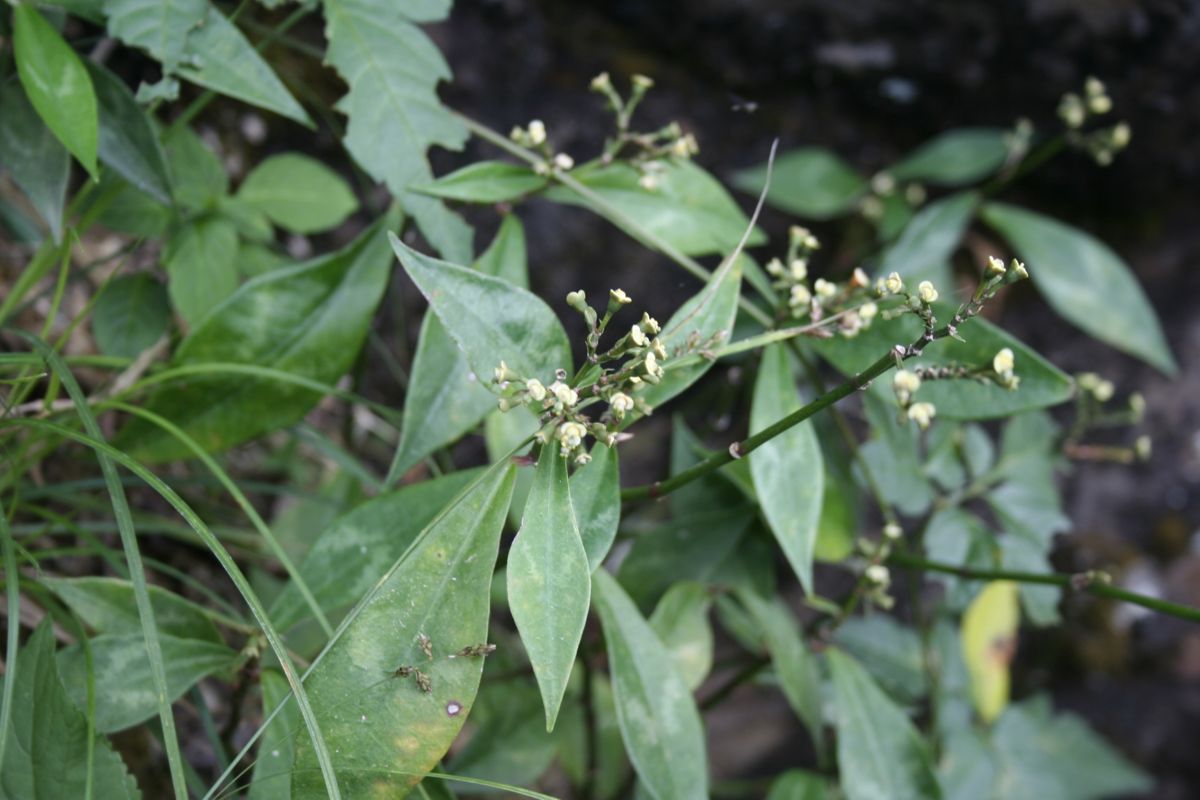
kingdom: Plantae
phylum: Tracheophyta
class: Magnoliopsida
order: Malpighiales
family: Euphorbiaceae
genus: Euphorbia
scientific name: Euphorbia lancifolia
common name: Ixbut
